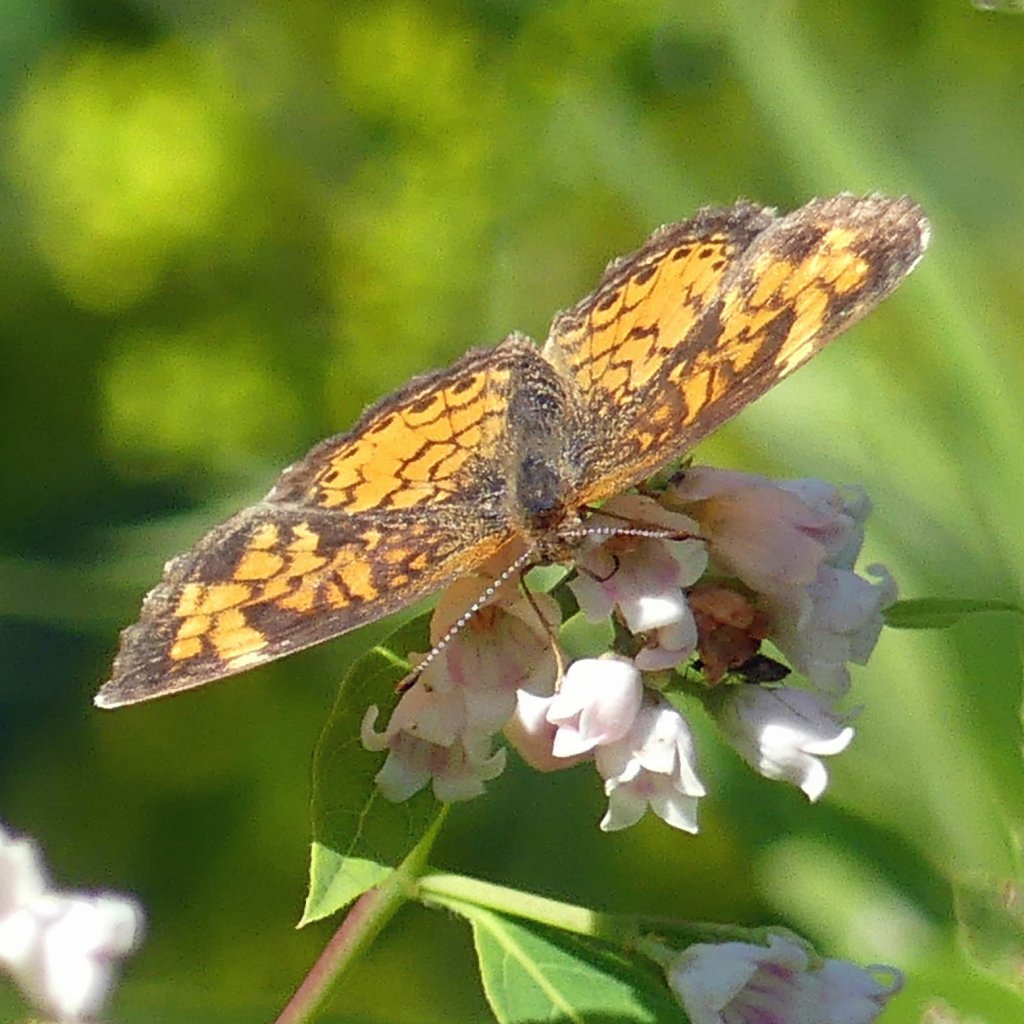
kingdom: Animalia
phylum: Arthropoda
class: Insecta
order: Lepidoptera
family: Nymphalidae
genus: Phyciodes
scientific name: Phyciodes tharos
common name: Pearl Crescent
